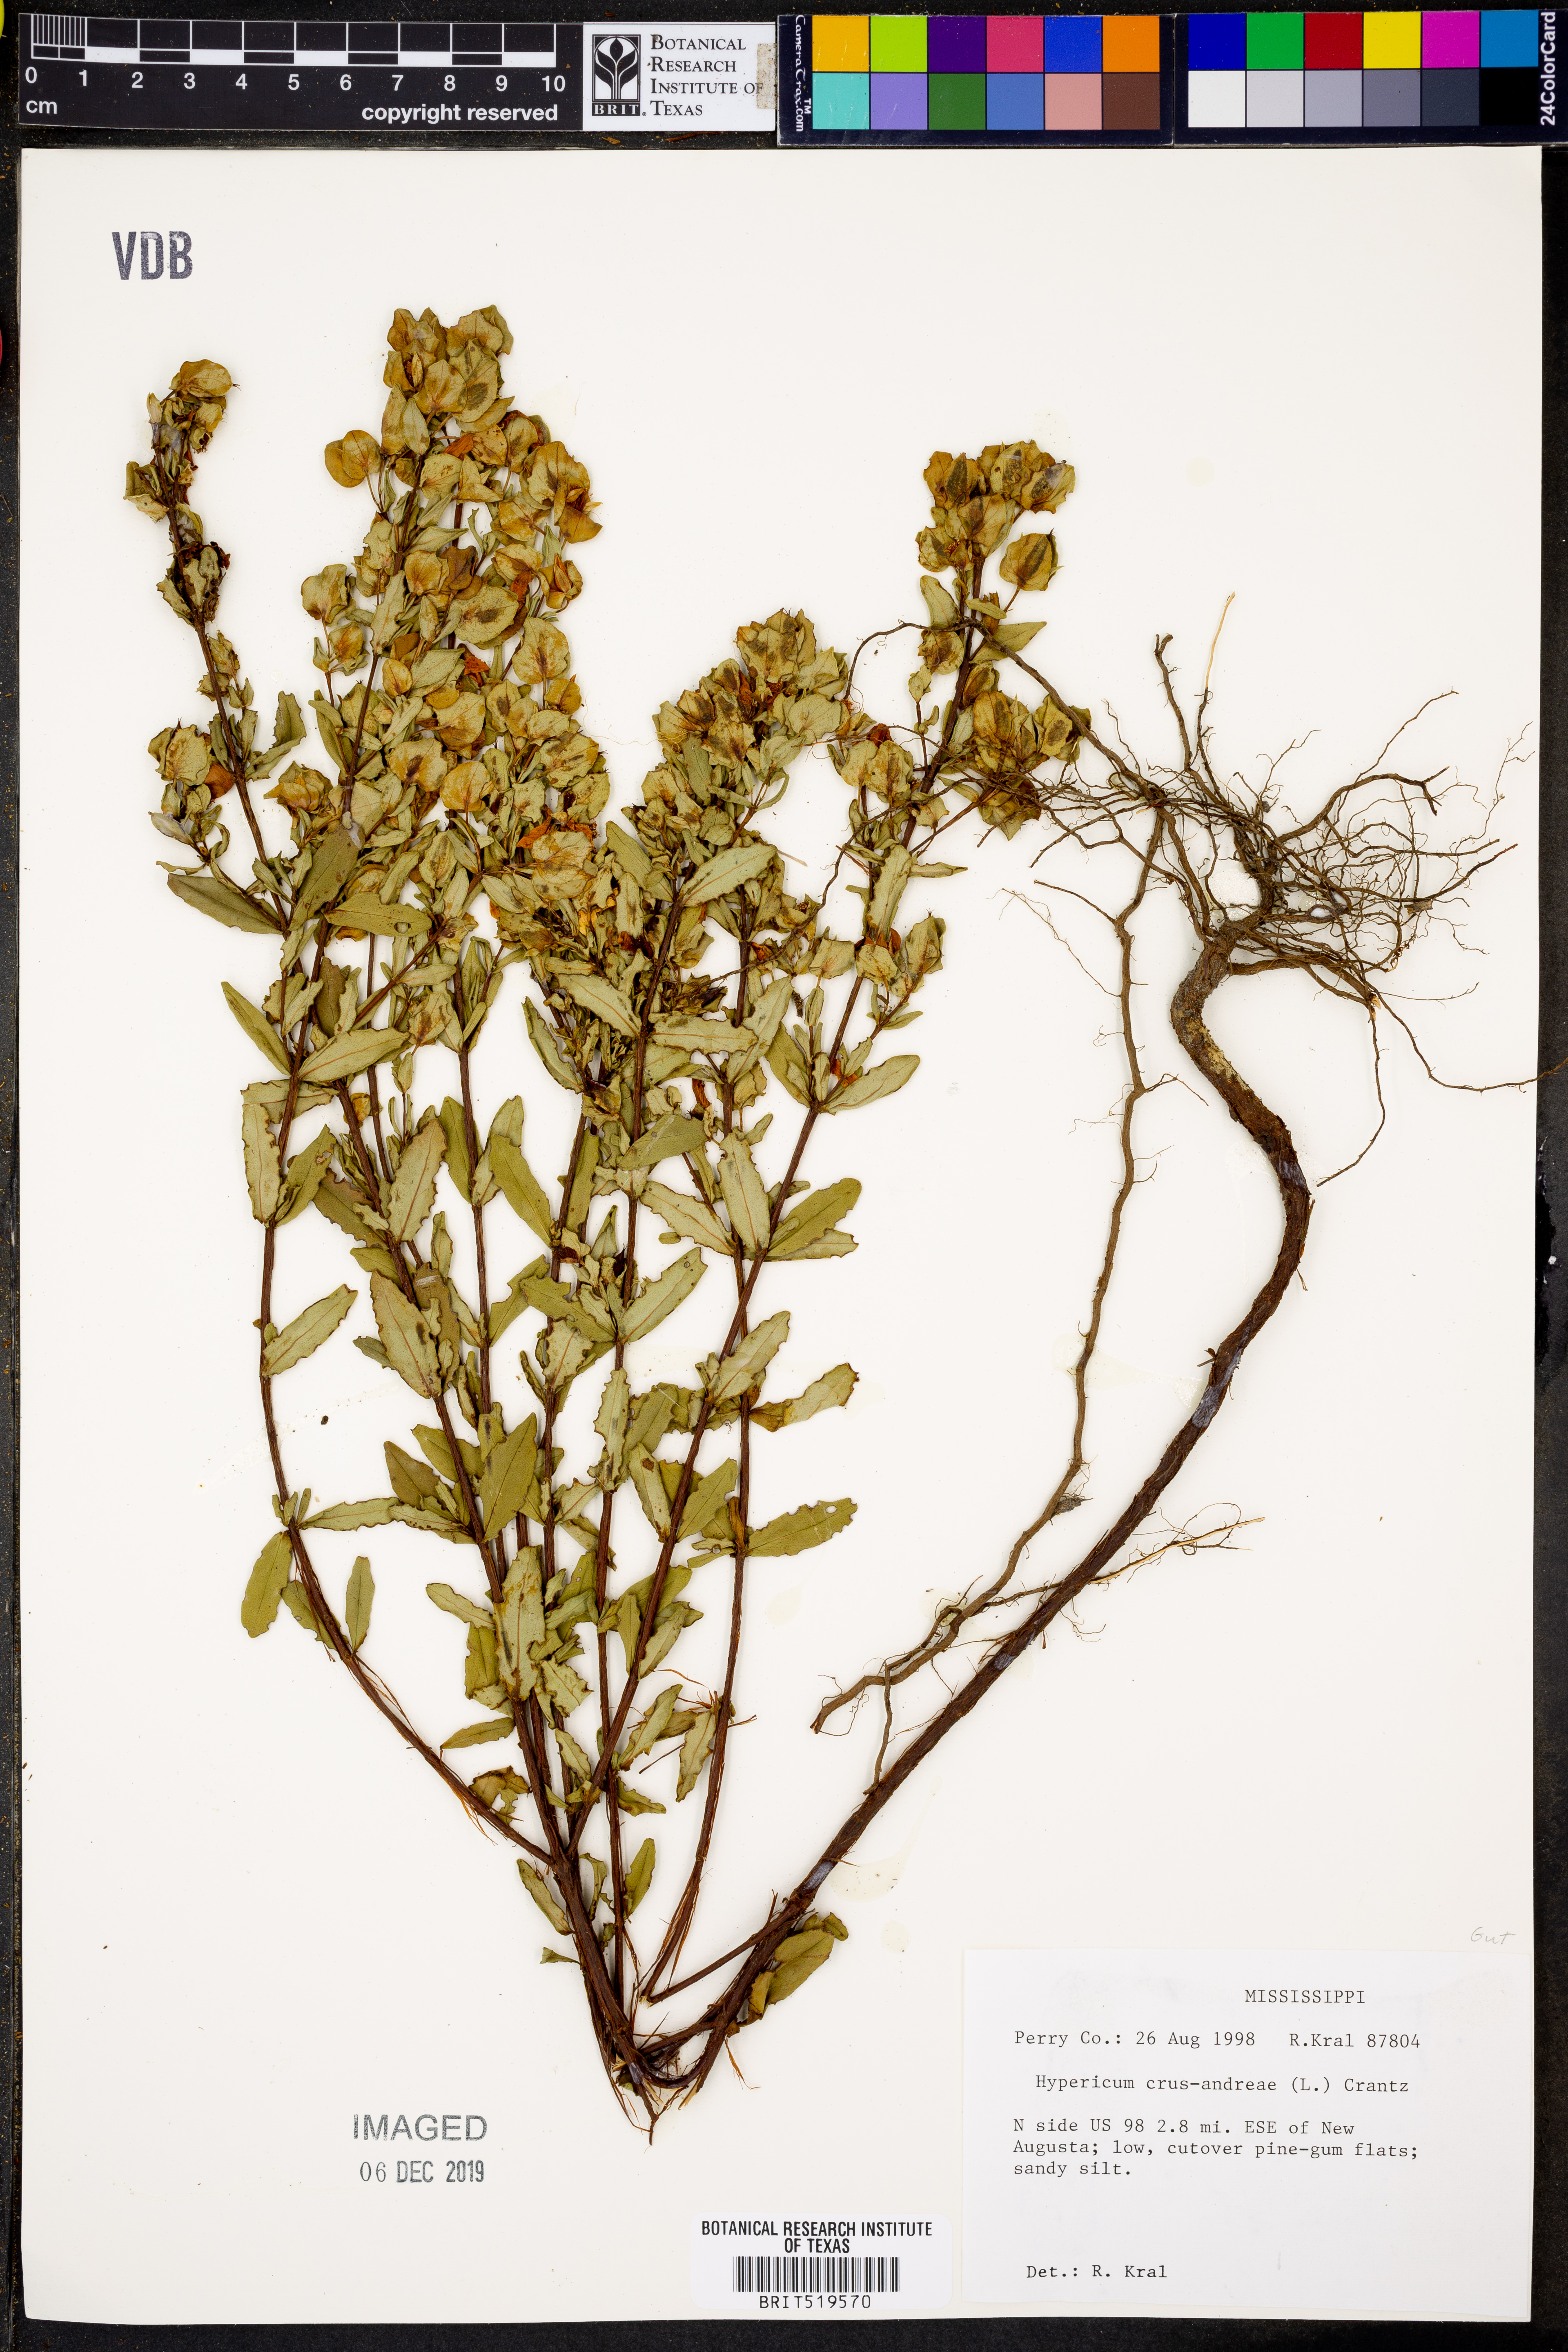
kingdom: Plantae
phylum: Tracheophyta
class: Magnoliopsida
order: Malpighiales
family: Hypericaceae
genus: Hypericum
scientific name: Hypericum crux-andreae
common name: St.-peter's-wort
